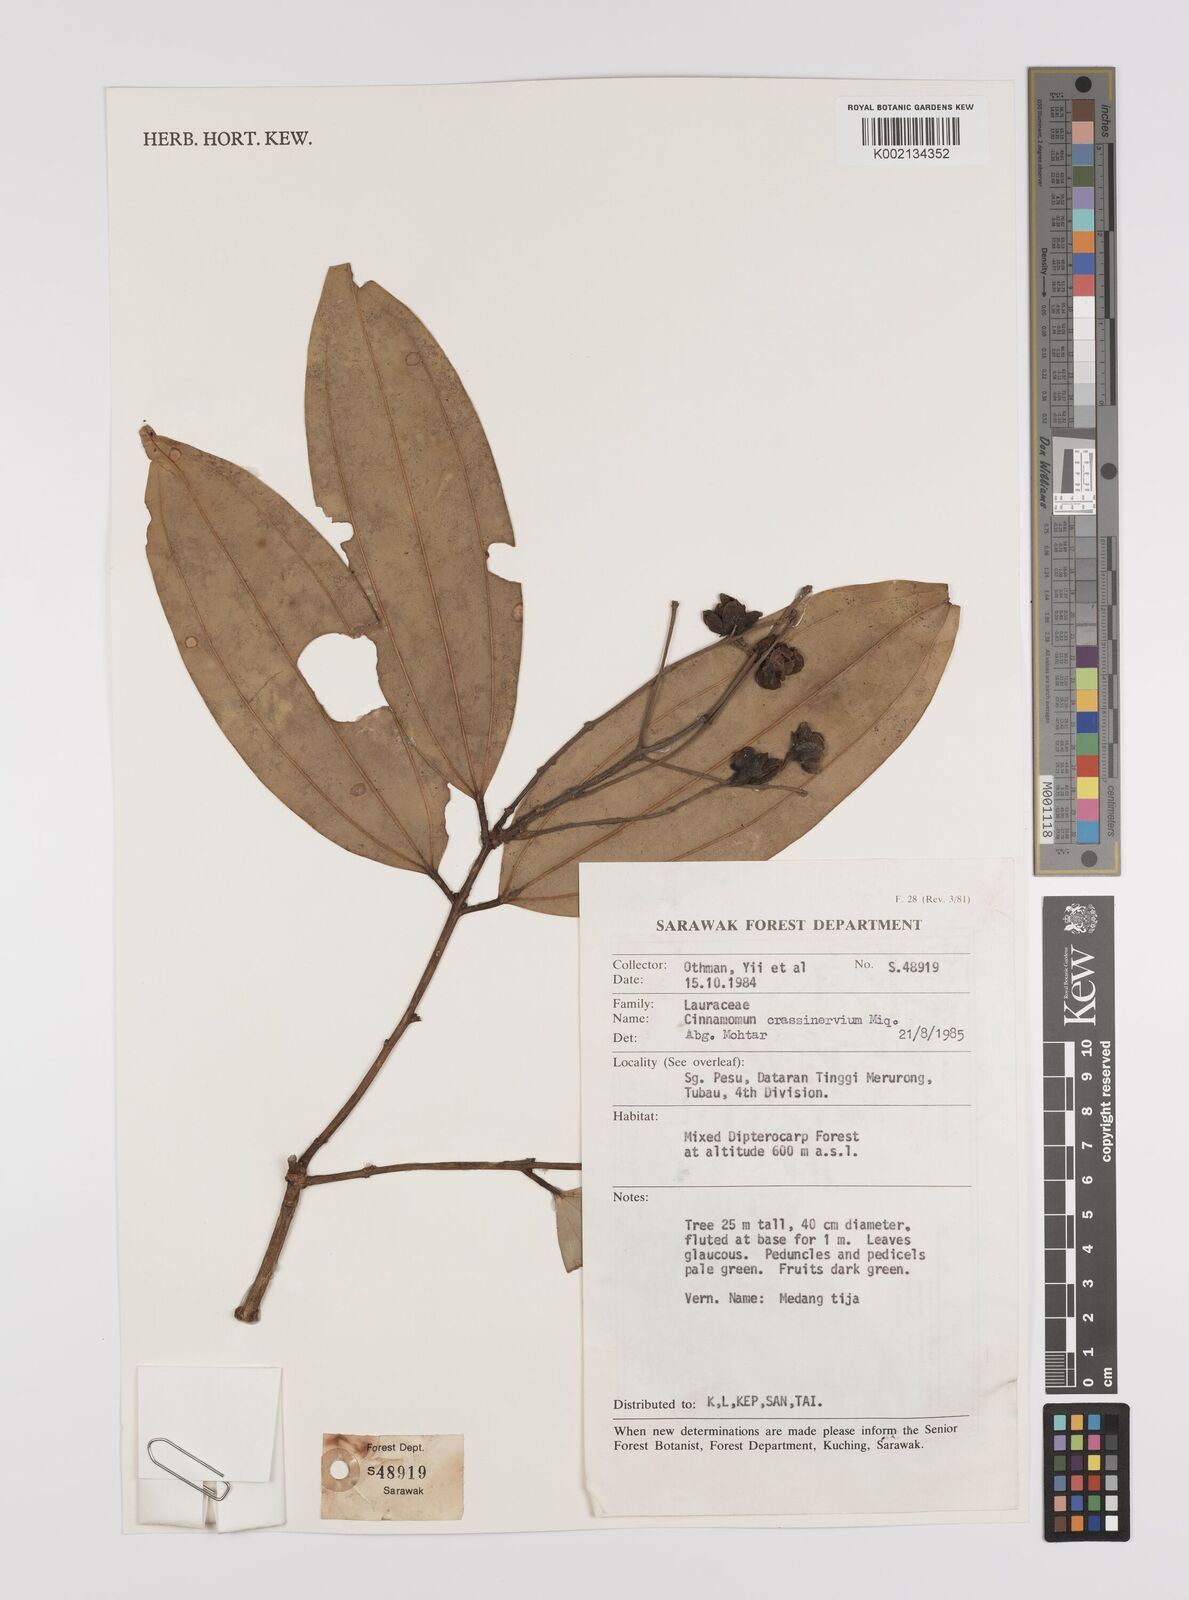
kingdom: Plantae
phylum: Tracheophyta
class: Magnoliopsida
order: Laurales
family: Lauraceae
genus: Cinnamomum
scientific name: Cinnamomum crassinervium
